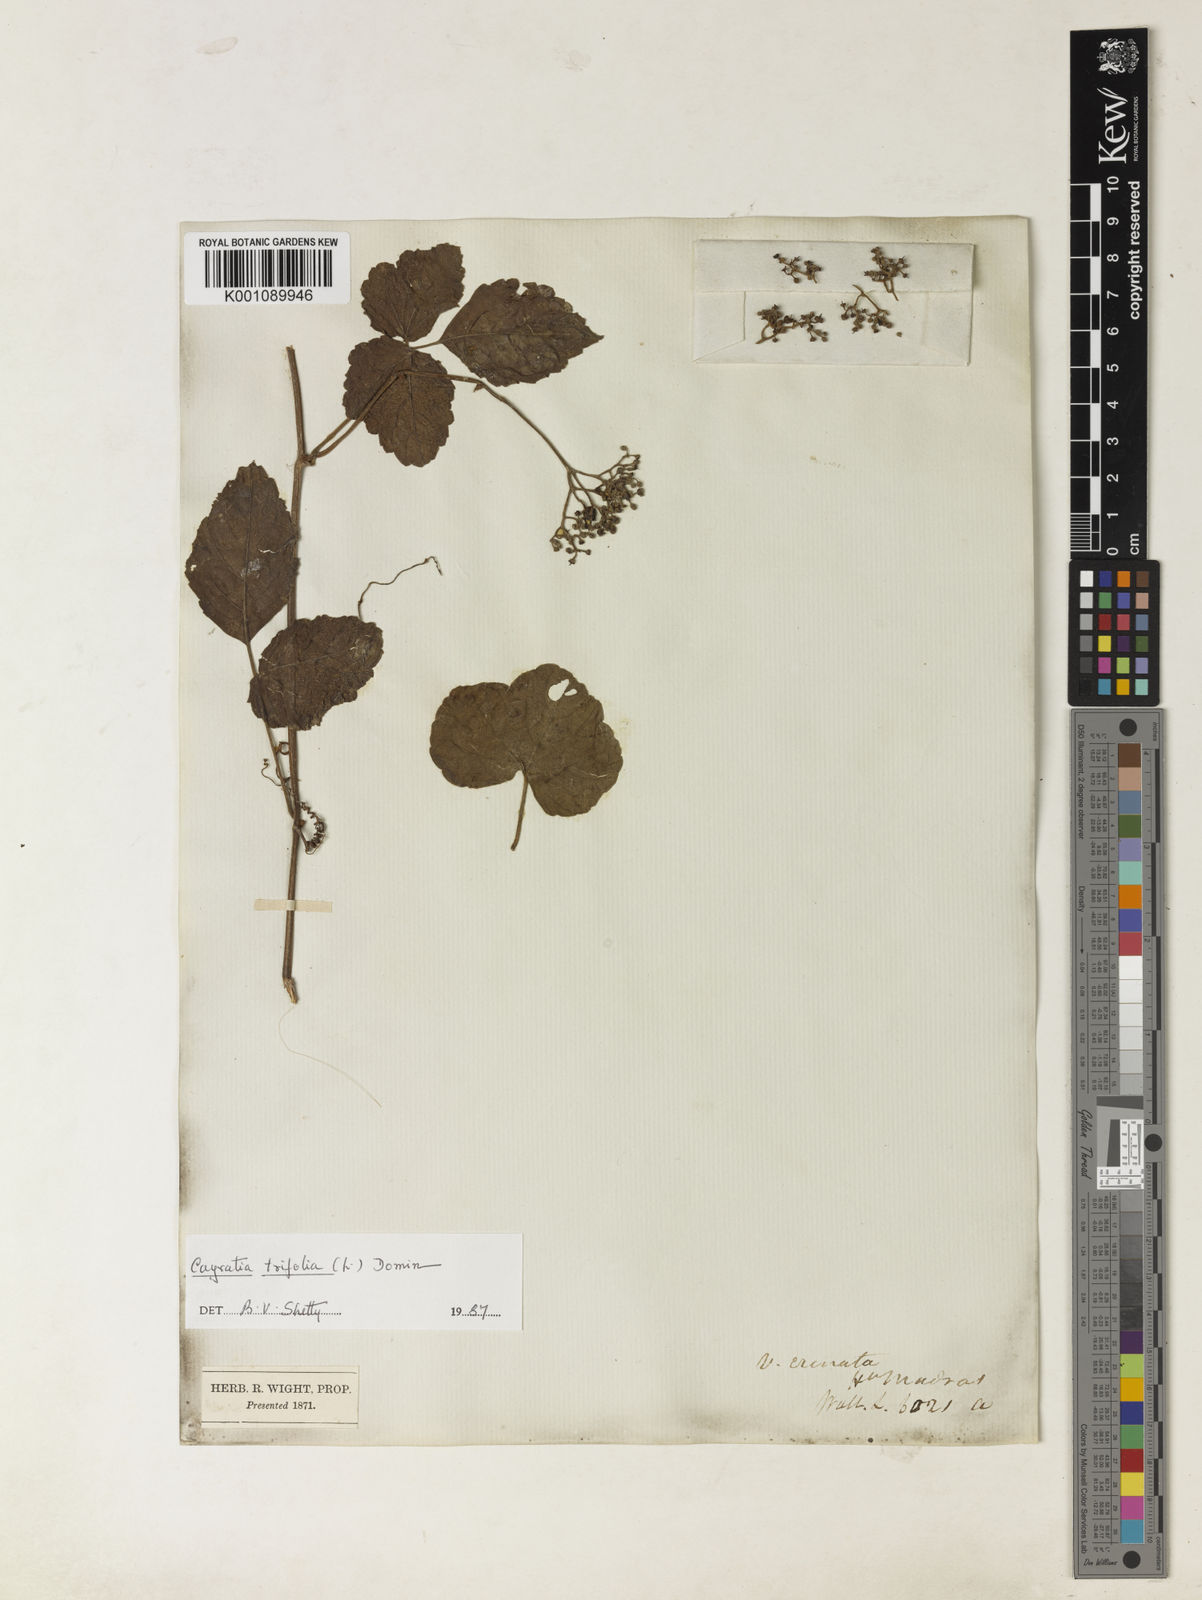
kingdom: Plantae
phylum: Tracheophyta
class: Magnoliopsida
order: Vitales
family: Vitaceae
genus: Causonis
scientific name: Causonis trifolia
